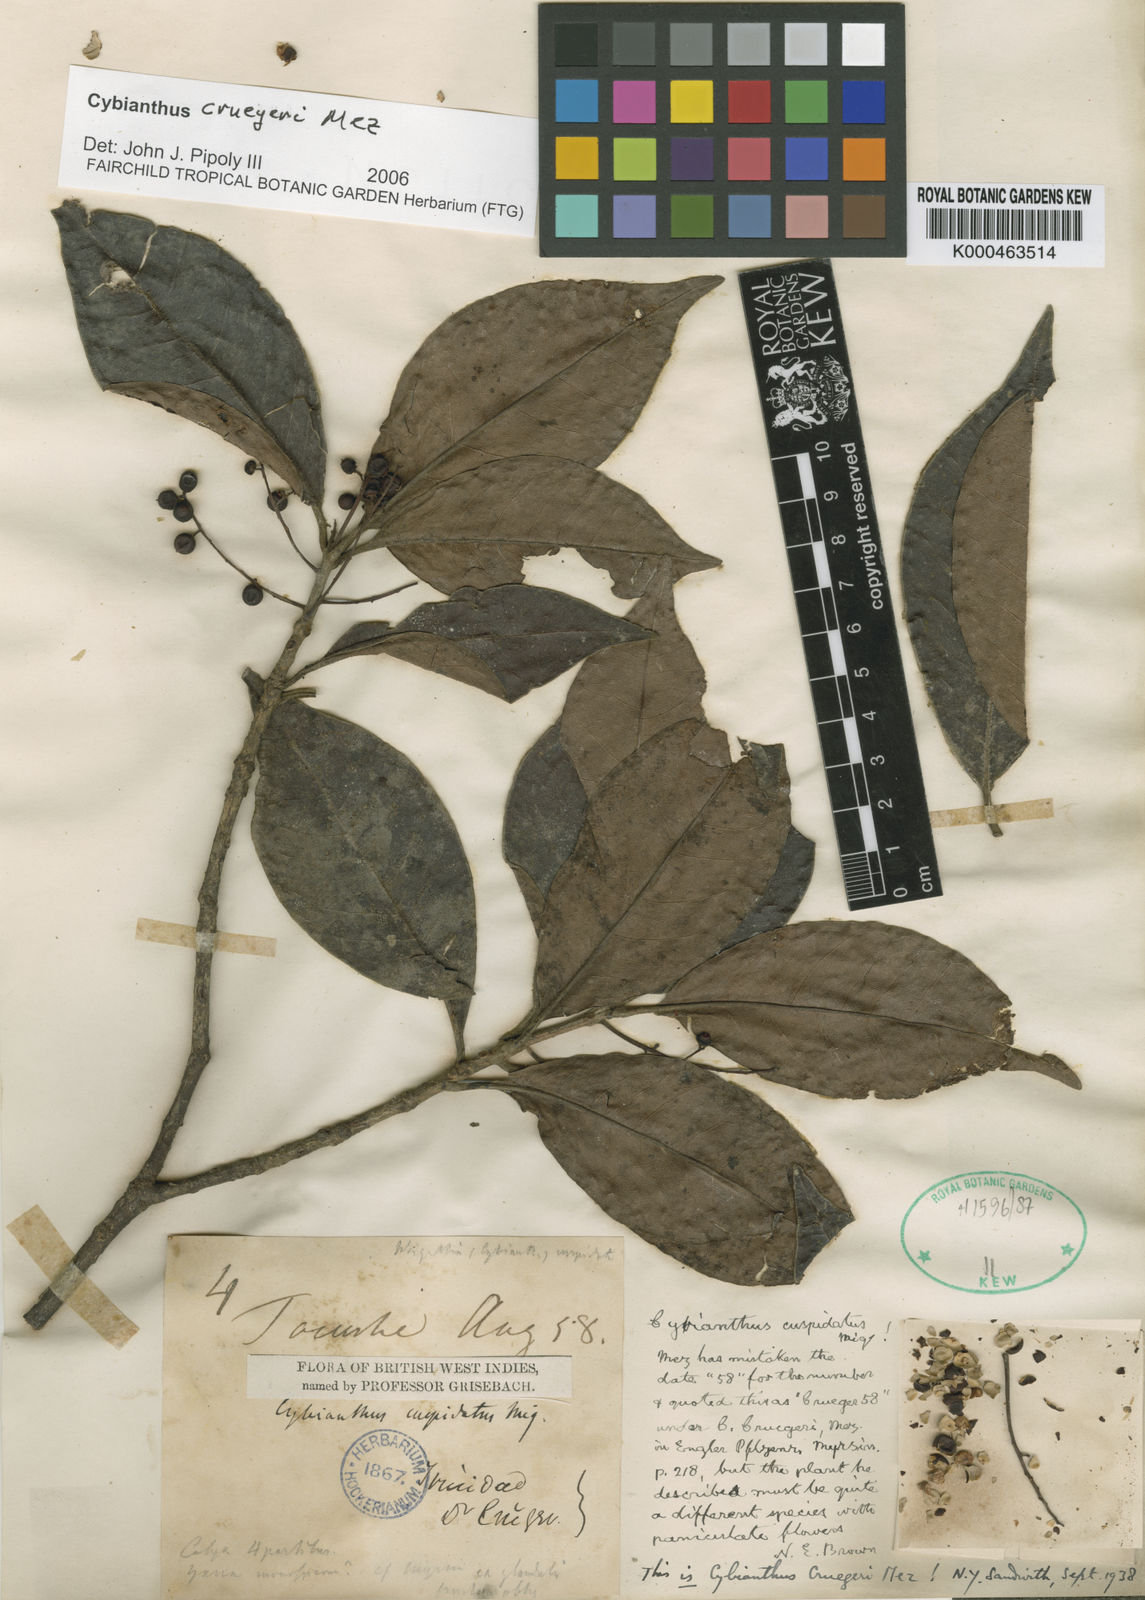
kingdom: Plantae
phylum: Tracheophyta
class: Magnoliopsida
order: Ericales
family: Primulaceae
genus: Cybianthus
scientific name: Cybianthus antillanus
